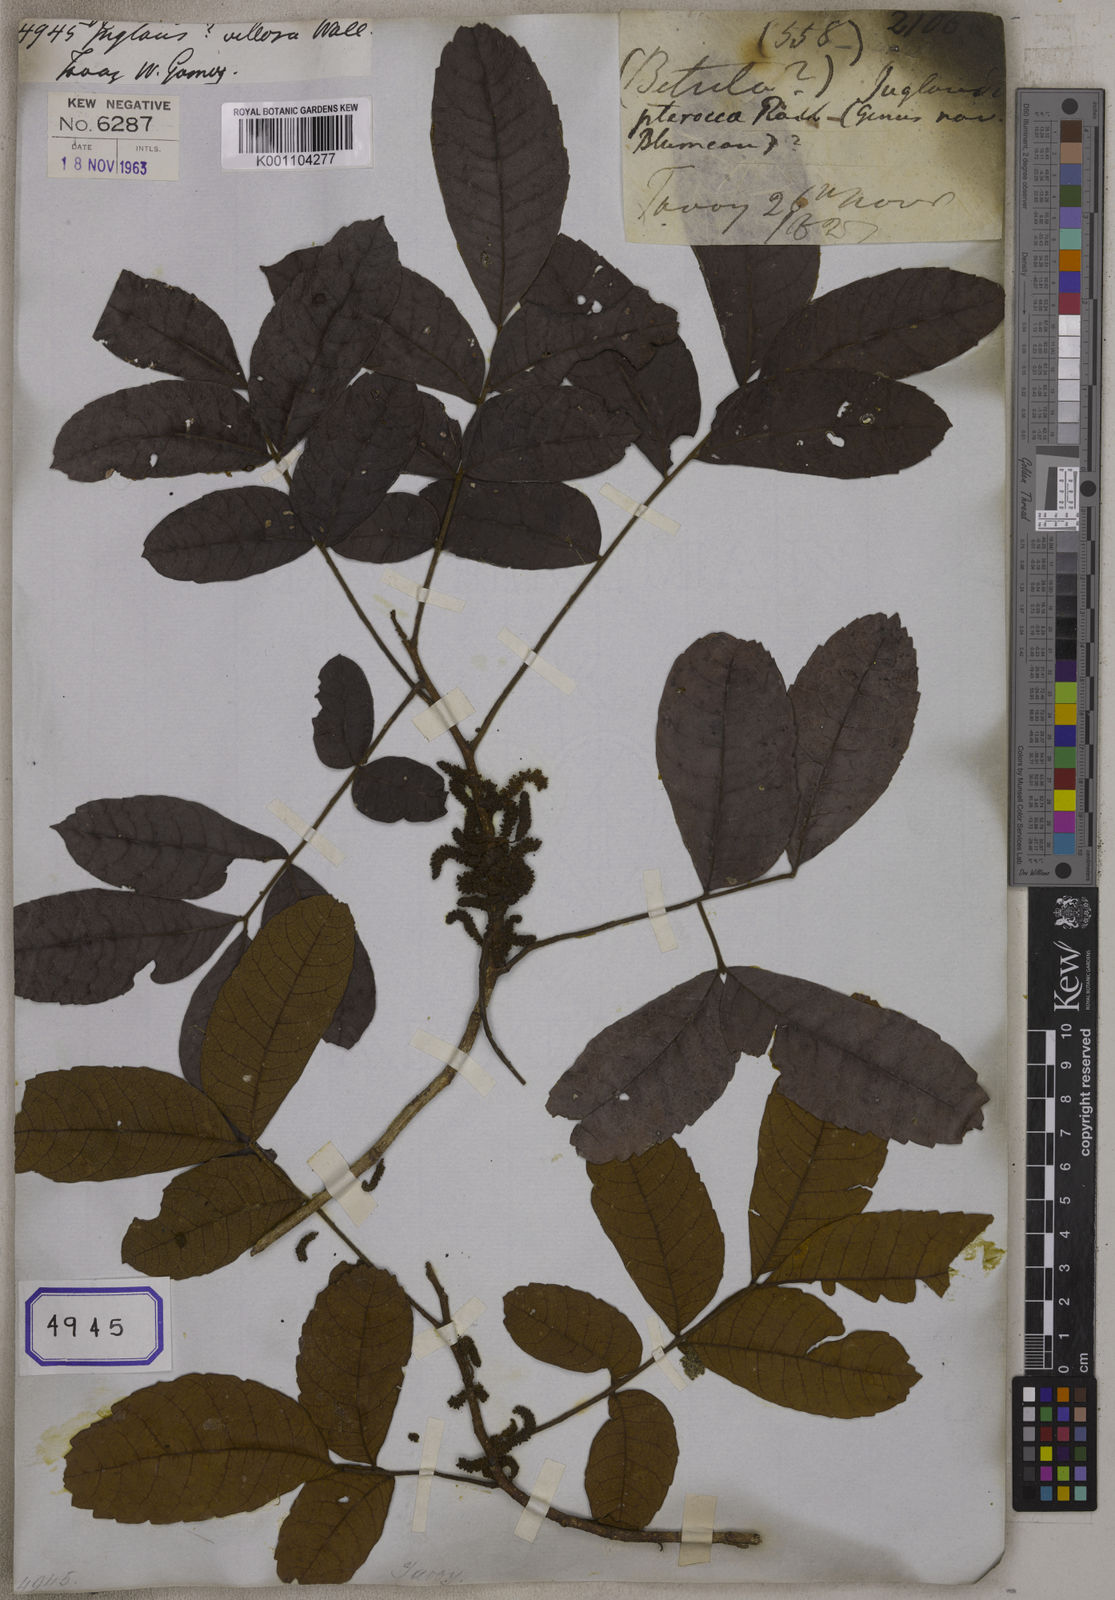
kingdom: Plantae
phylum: Tracheophyta
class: Magnoliopsida
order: Fagales
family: Juglandaceae
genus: Engelhardia
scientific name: Engelhardia spicata
